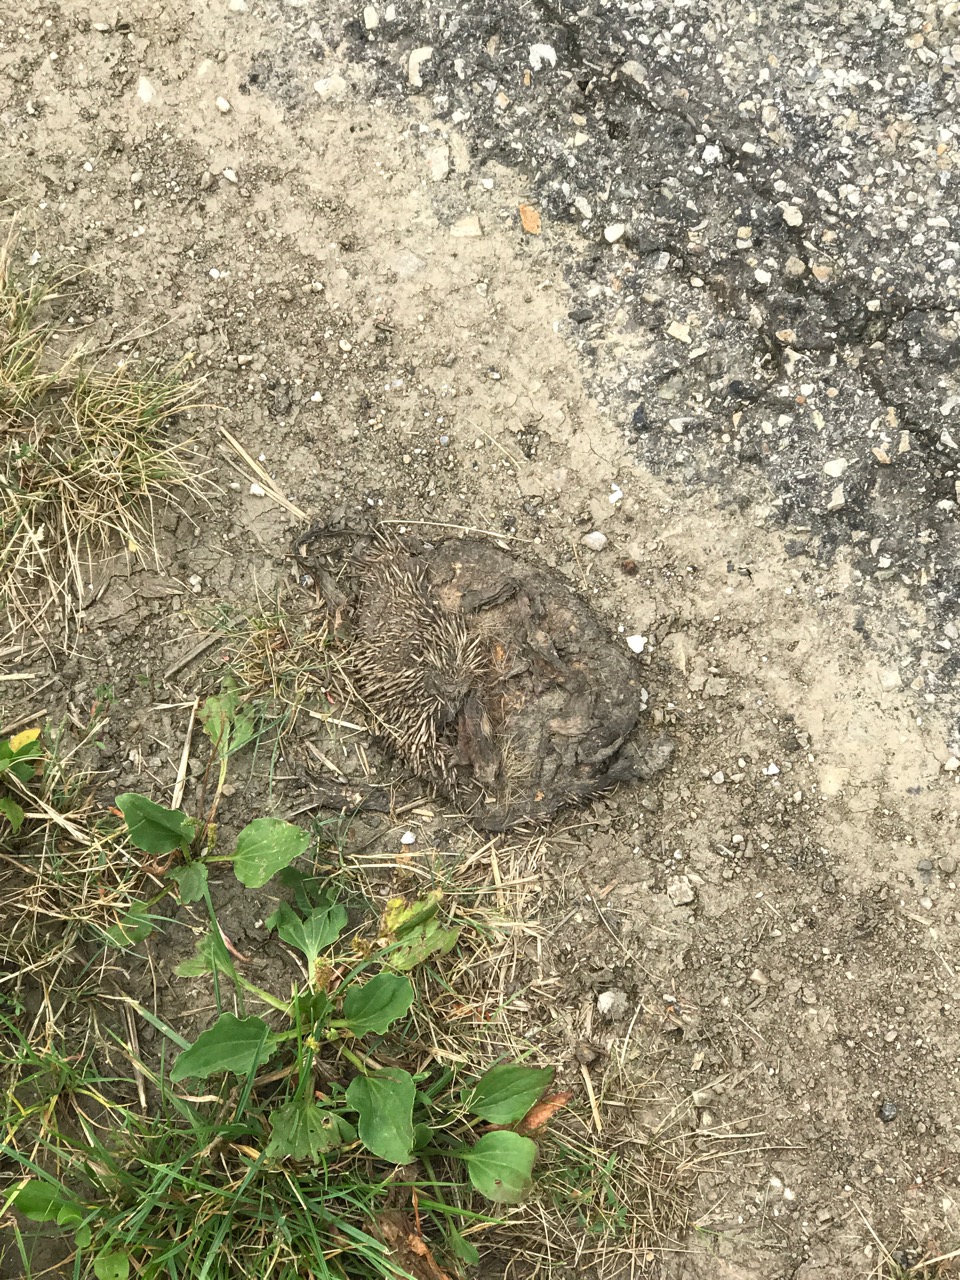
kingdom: Animalia
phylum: Chordata
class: Mammalia
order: Erinaceomorpha
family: Erinaceidae
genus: Erinaceus
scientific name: Erinaceus
